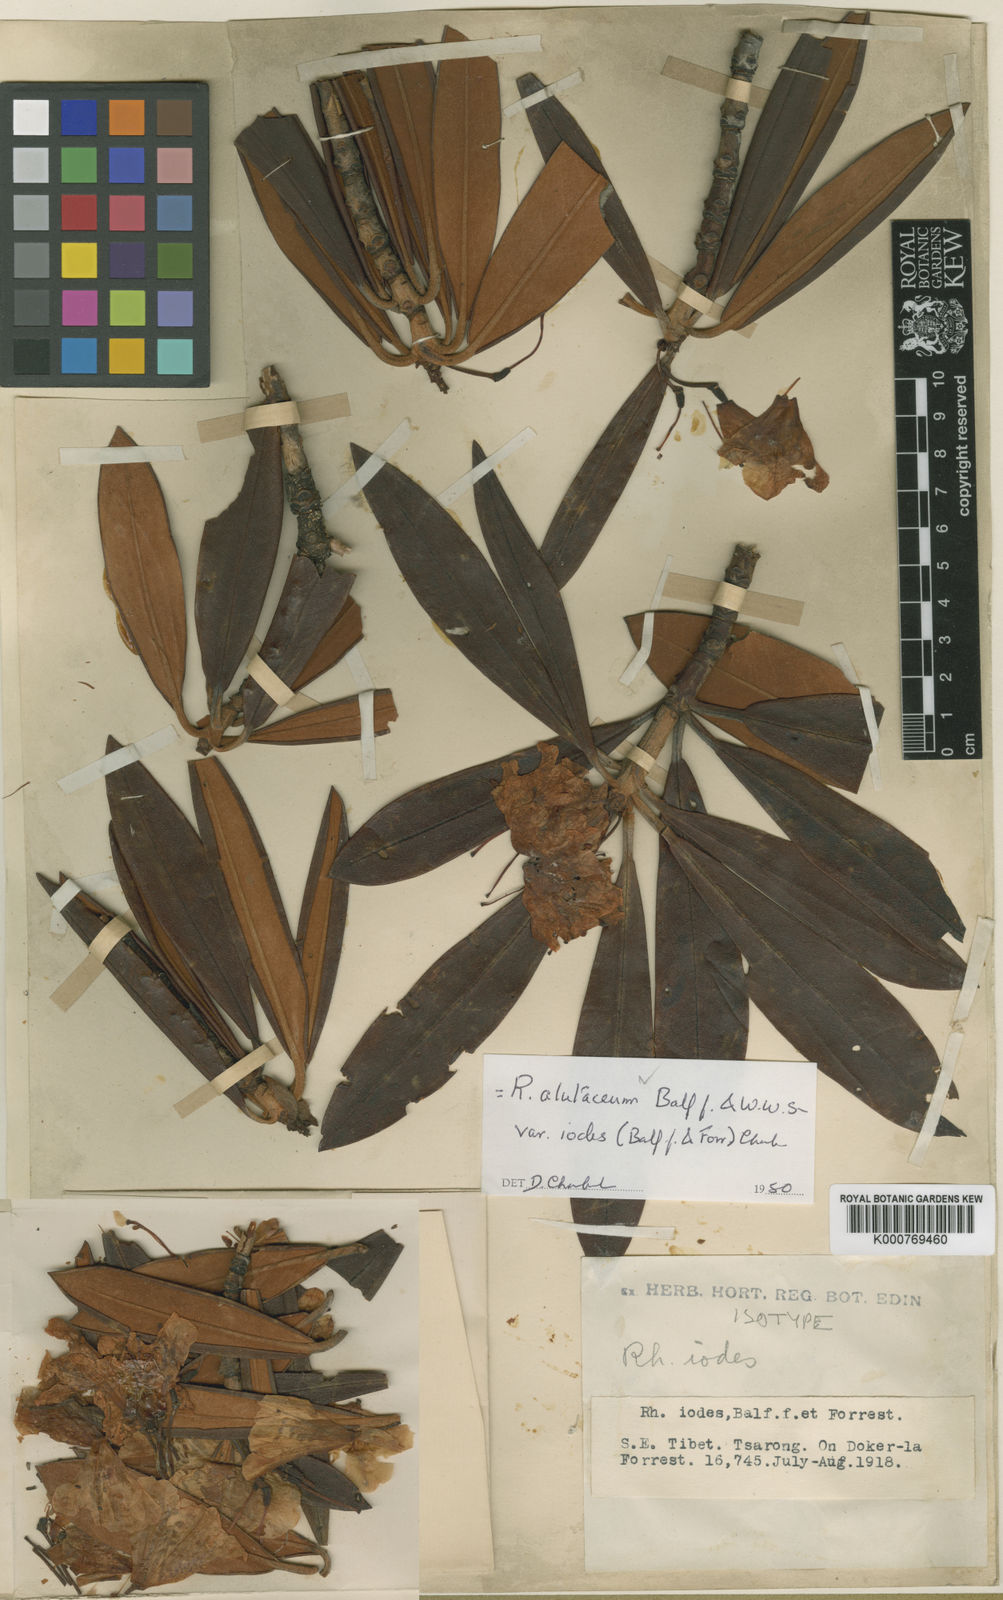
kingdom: Plantae
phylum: Tracheophyta
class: Magnoliopsida
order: Ericales
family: Ericaceae
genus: Rhododendron
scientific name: Rhododendron alutaceum
